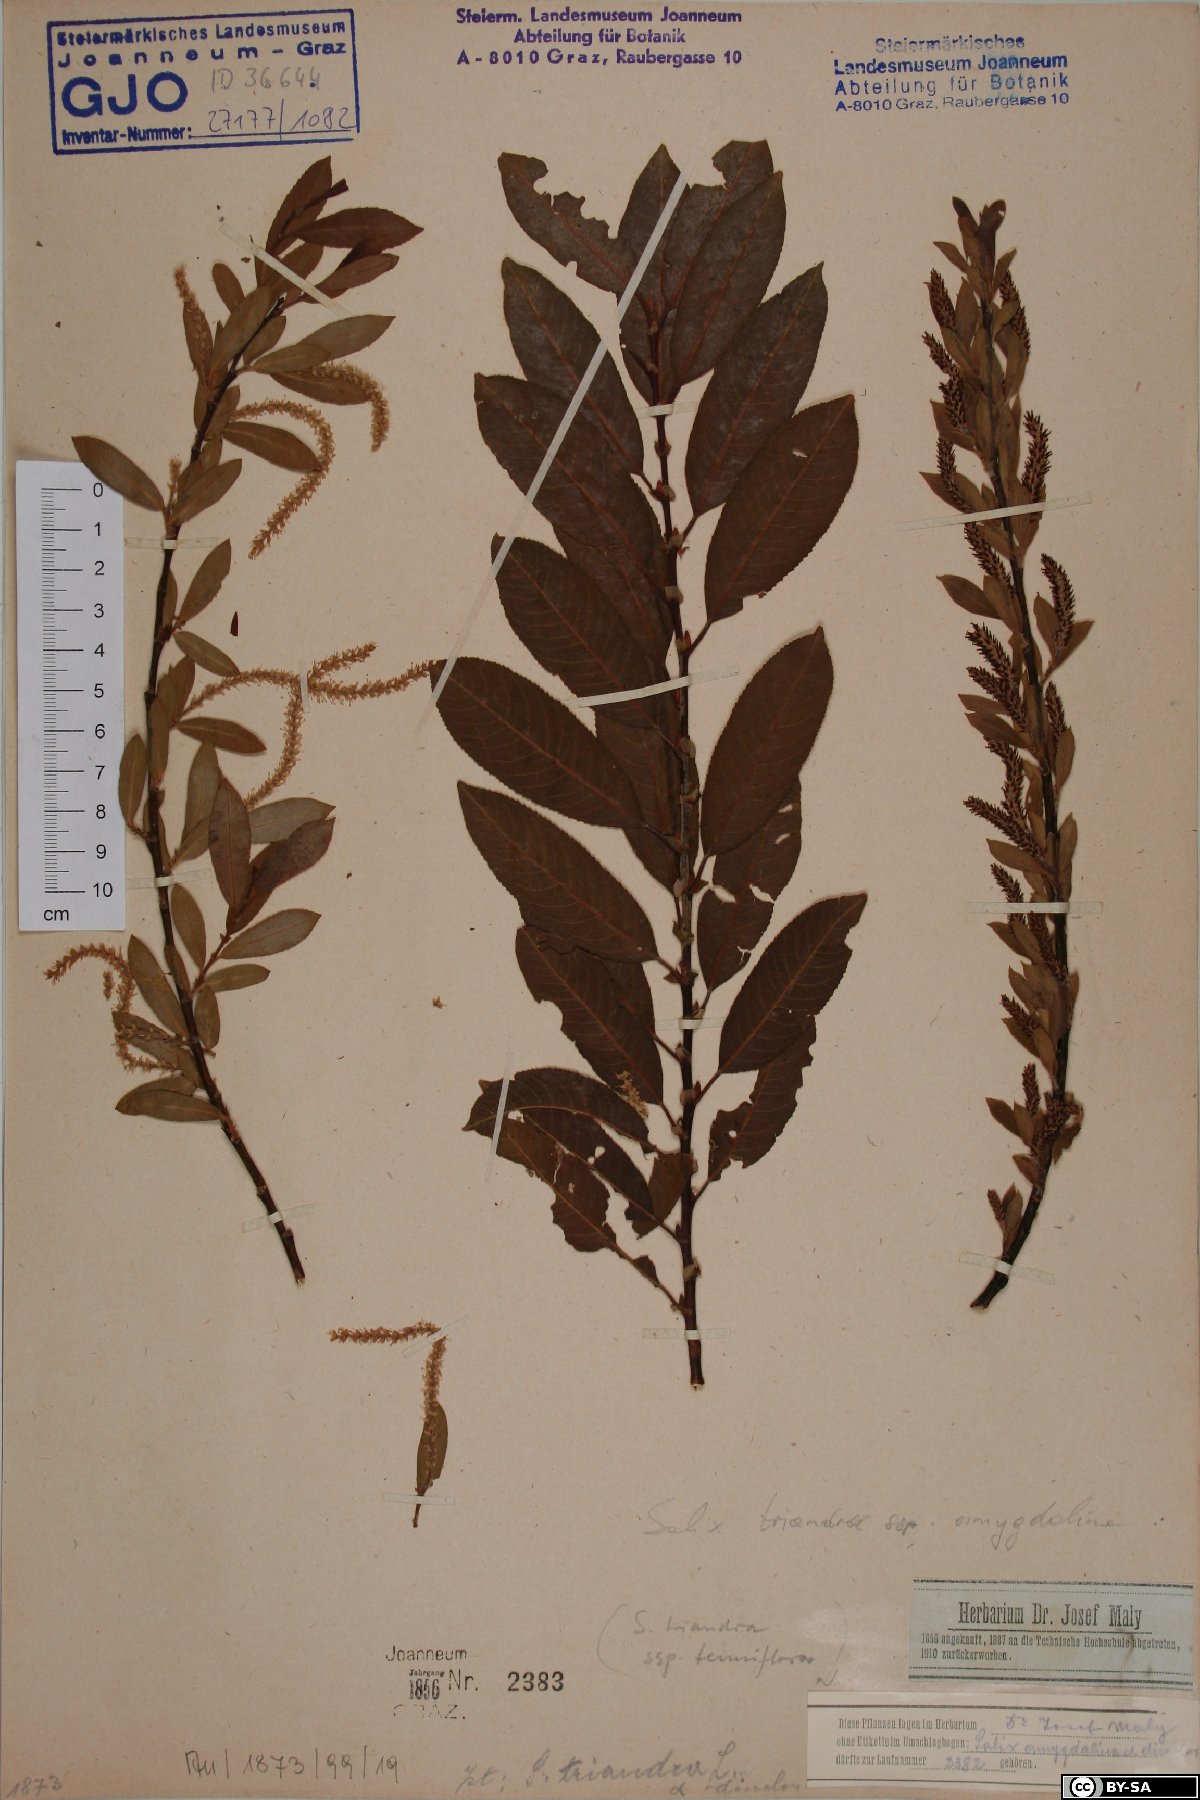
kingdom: Plantae
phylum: Tracheophyta
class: Magnoliopsida
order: Malpighiales
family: Salicaceae
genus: Salix
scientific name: Salix triandra
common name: Almond willow
